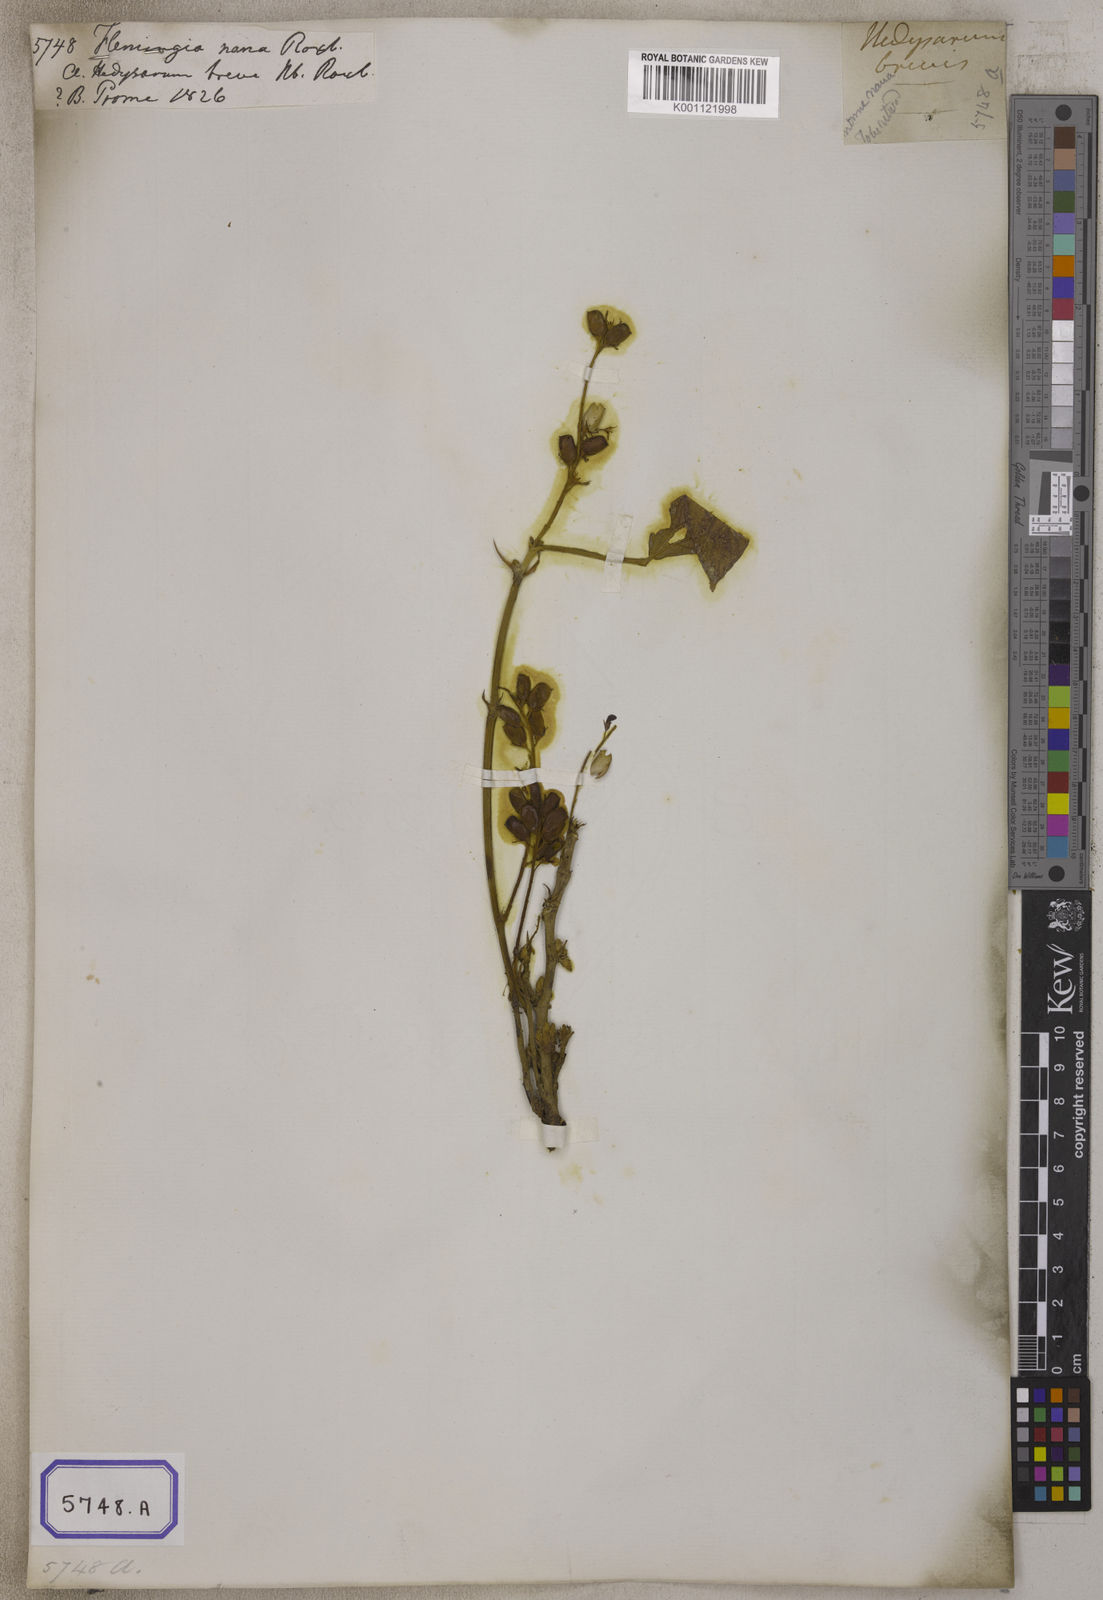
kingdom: Plantae
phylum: Tracheophyta
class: Magnoliopsida
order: Fabales
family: Fabaceae
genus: Flemingia
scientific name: Flemingia
